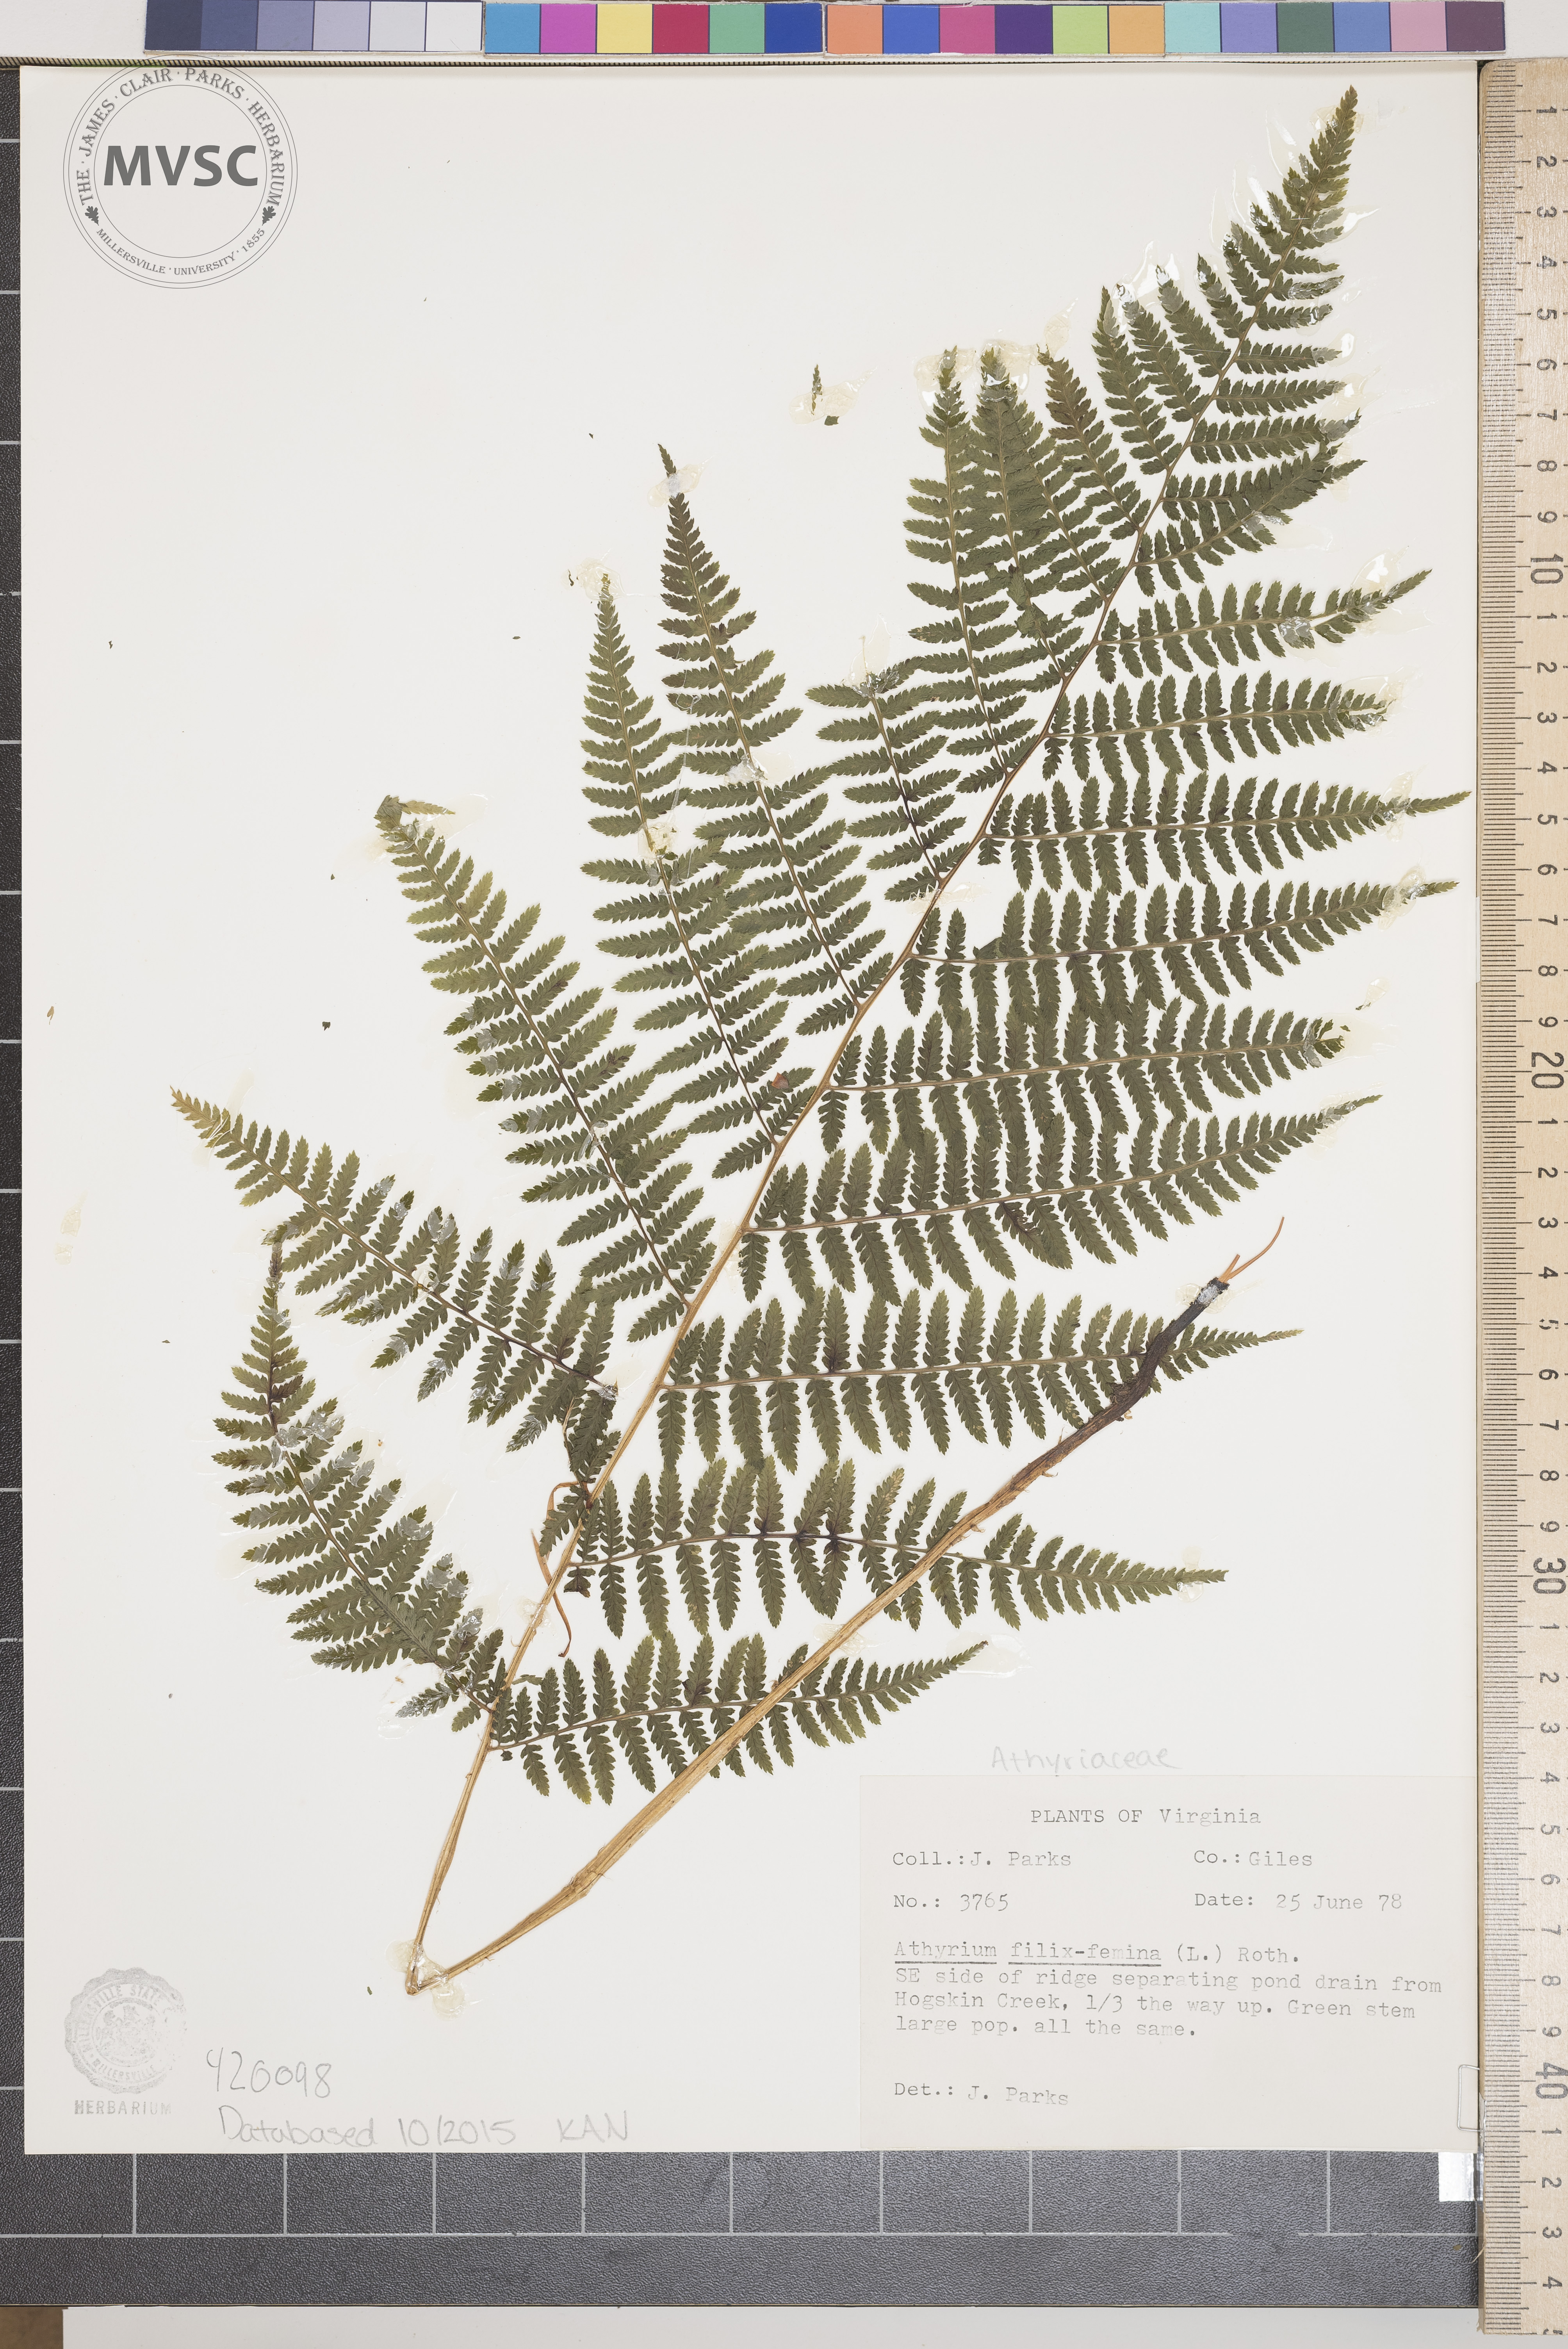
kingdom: Plantae
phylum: Tracheophyta
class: Polypodiopsida
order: Polypodiales
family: Athyriaceae
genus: Athyrium
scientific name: Athyrium filix-femina
